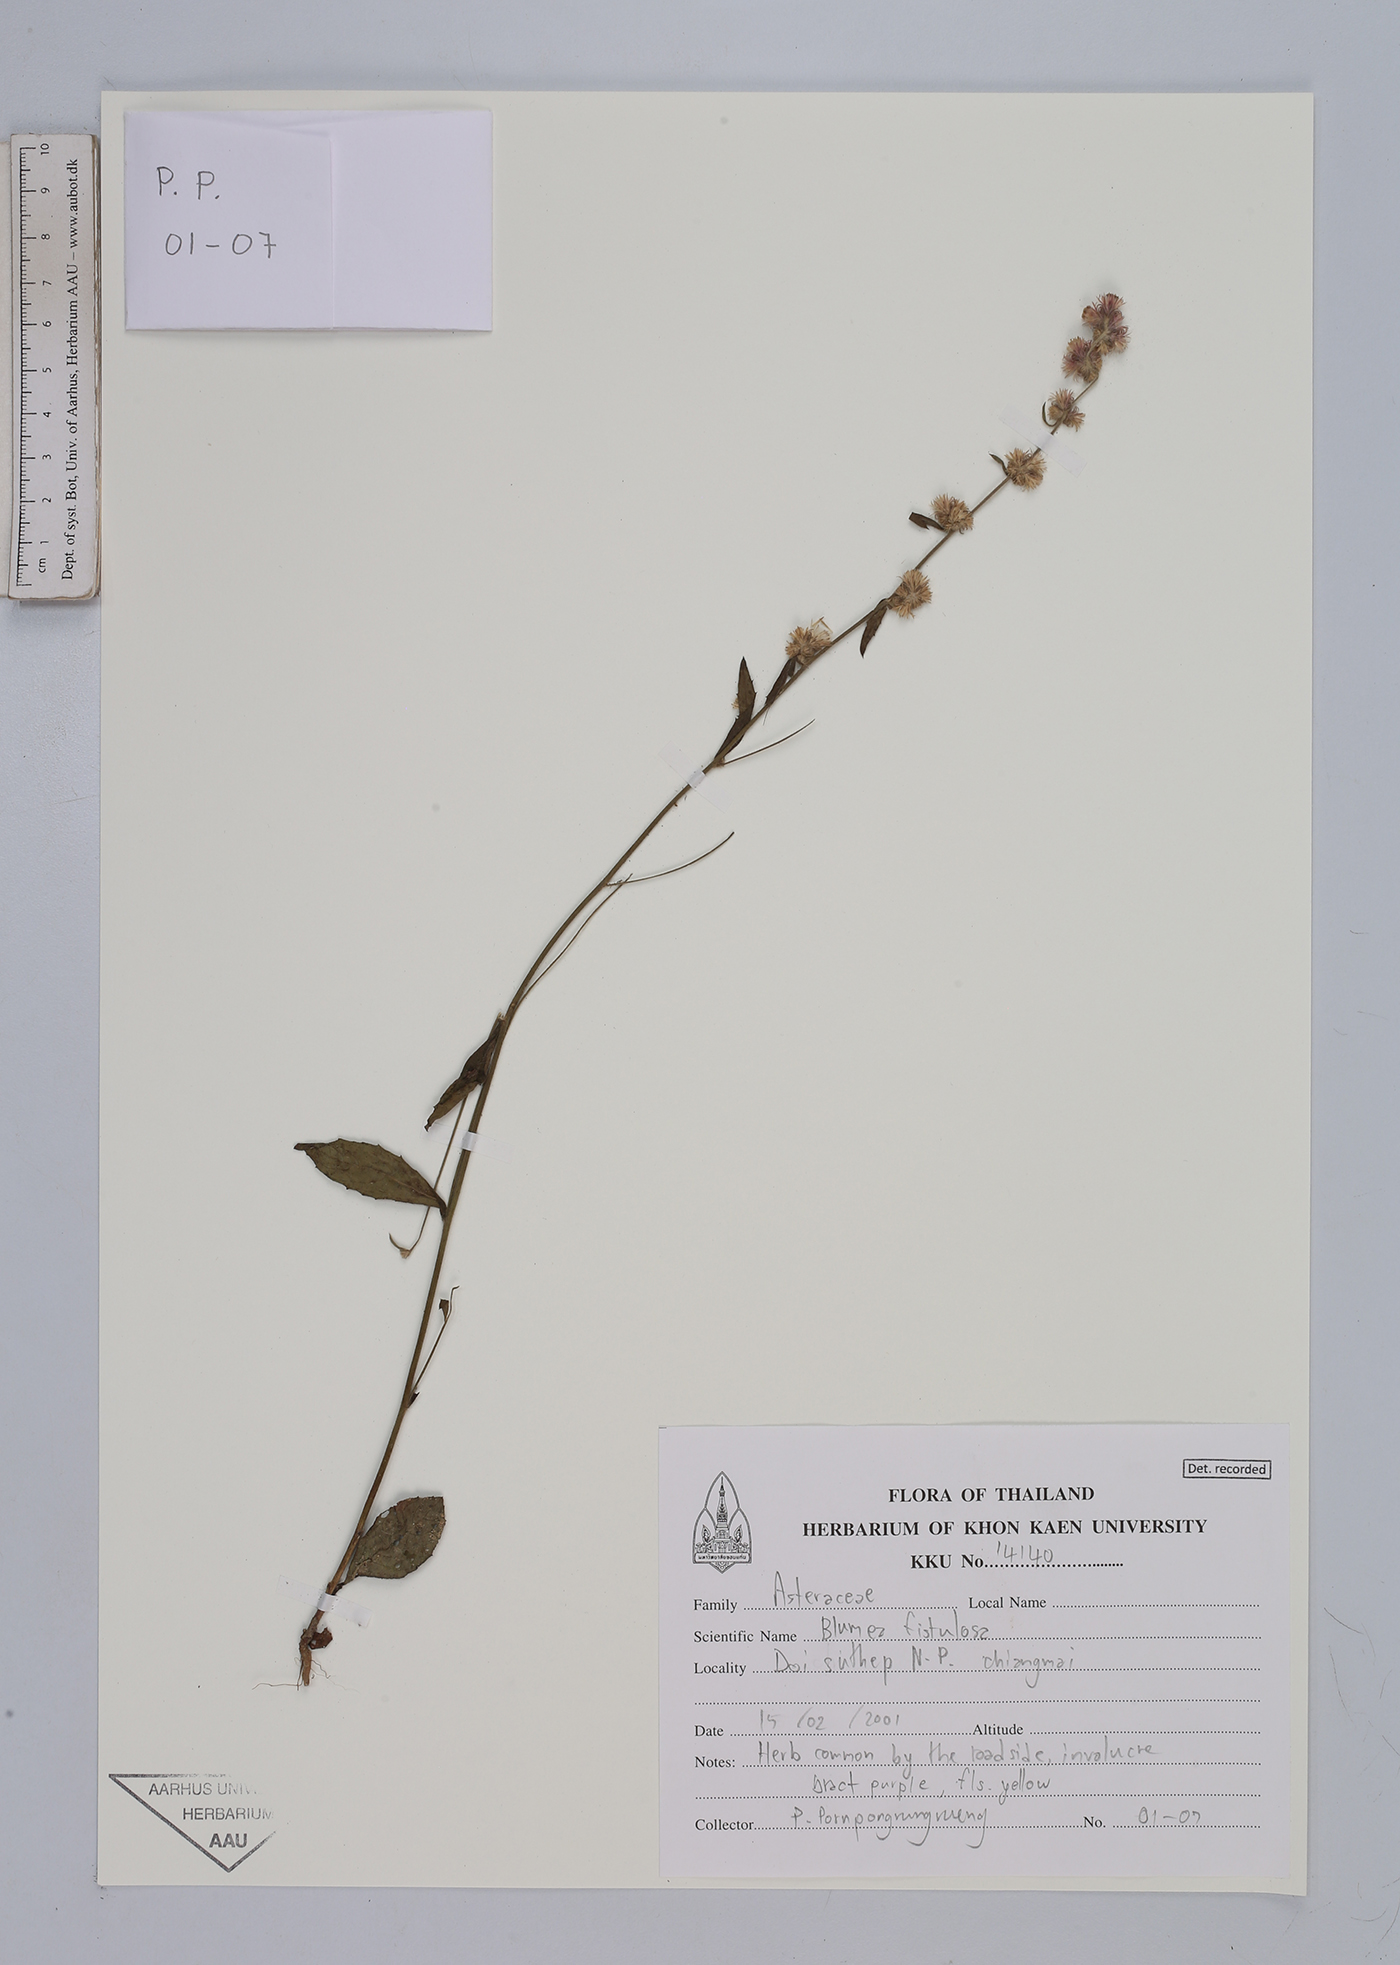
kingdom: Plantae
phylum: Tracheophyta
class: Magnoliopsida
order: Asterales
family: Asteraceae
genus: Blumea
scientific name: Blumea fistulosa
